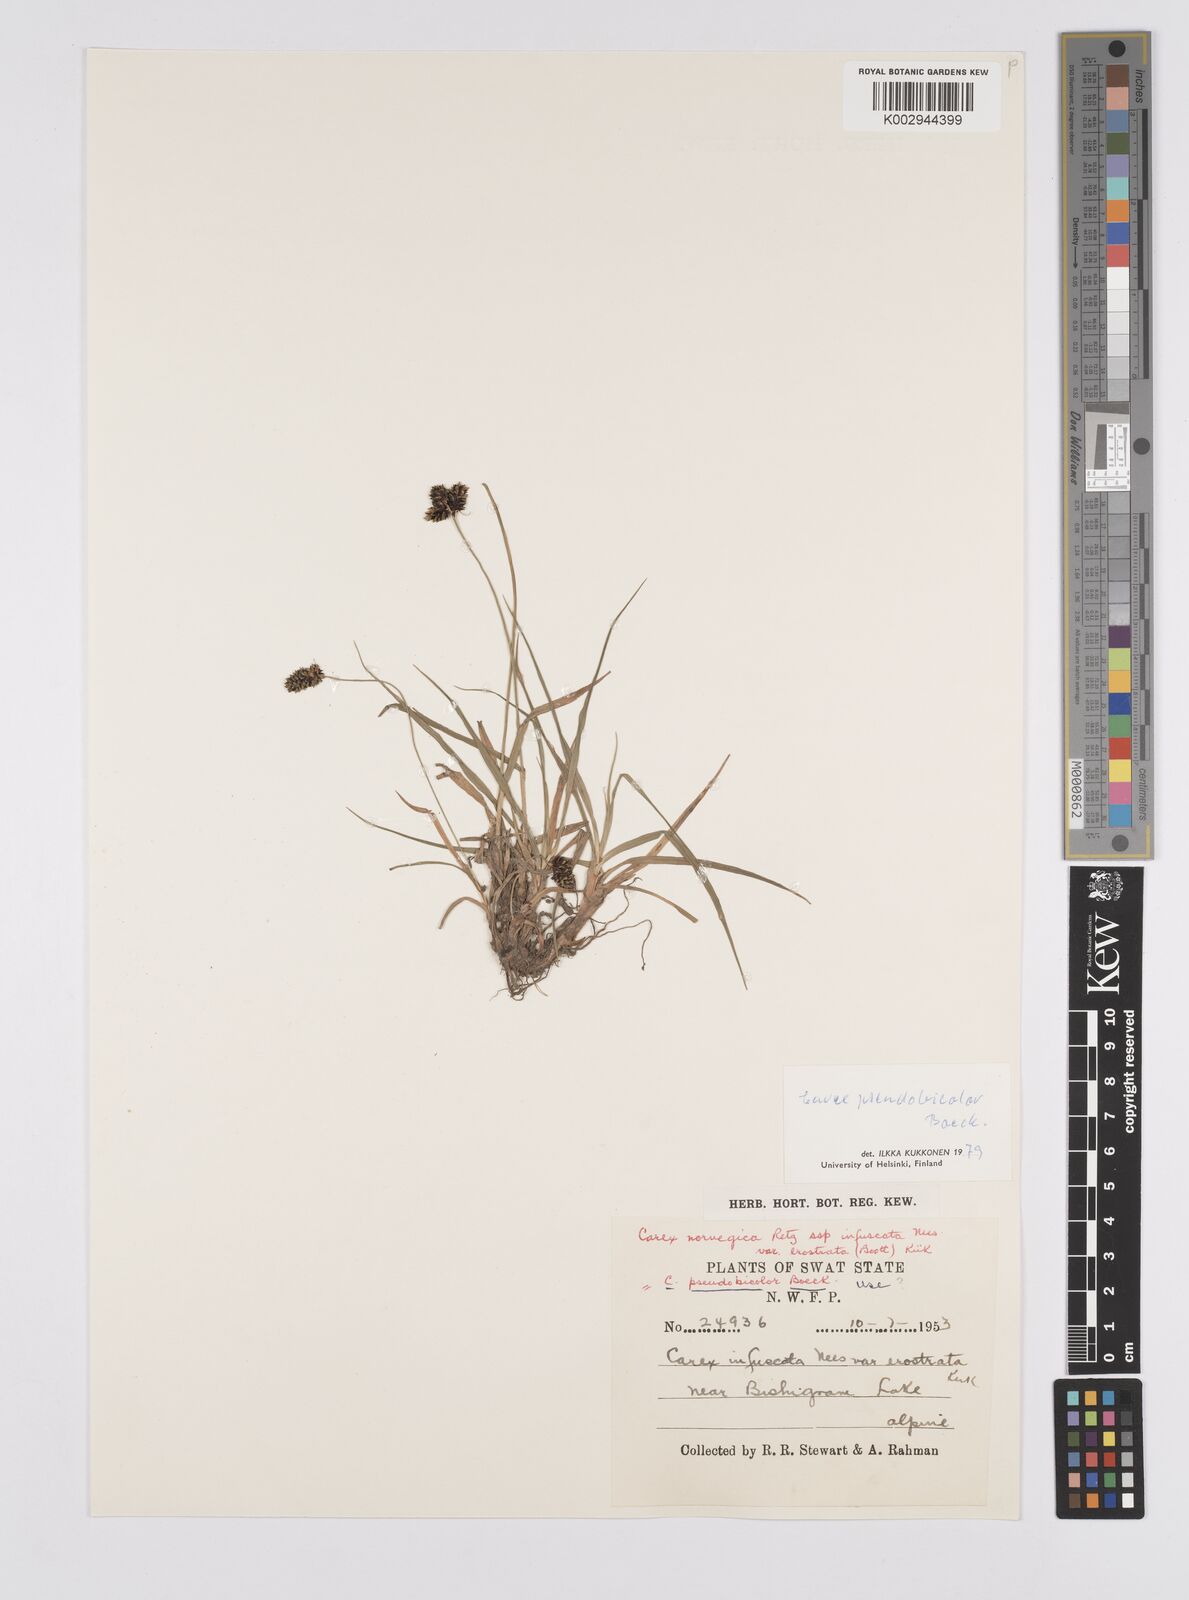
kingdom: Plantae
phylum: Tracheophyta
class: Liliopsida
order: Poales
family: Cyperaceae
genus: Carex
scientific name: Carex norvegica
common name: Close-headed alpine-sedge
